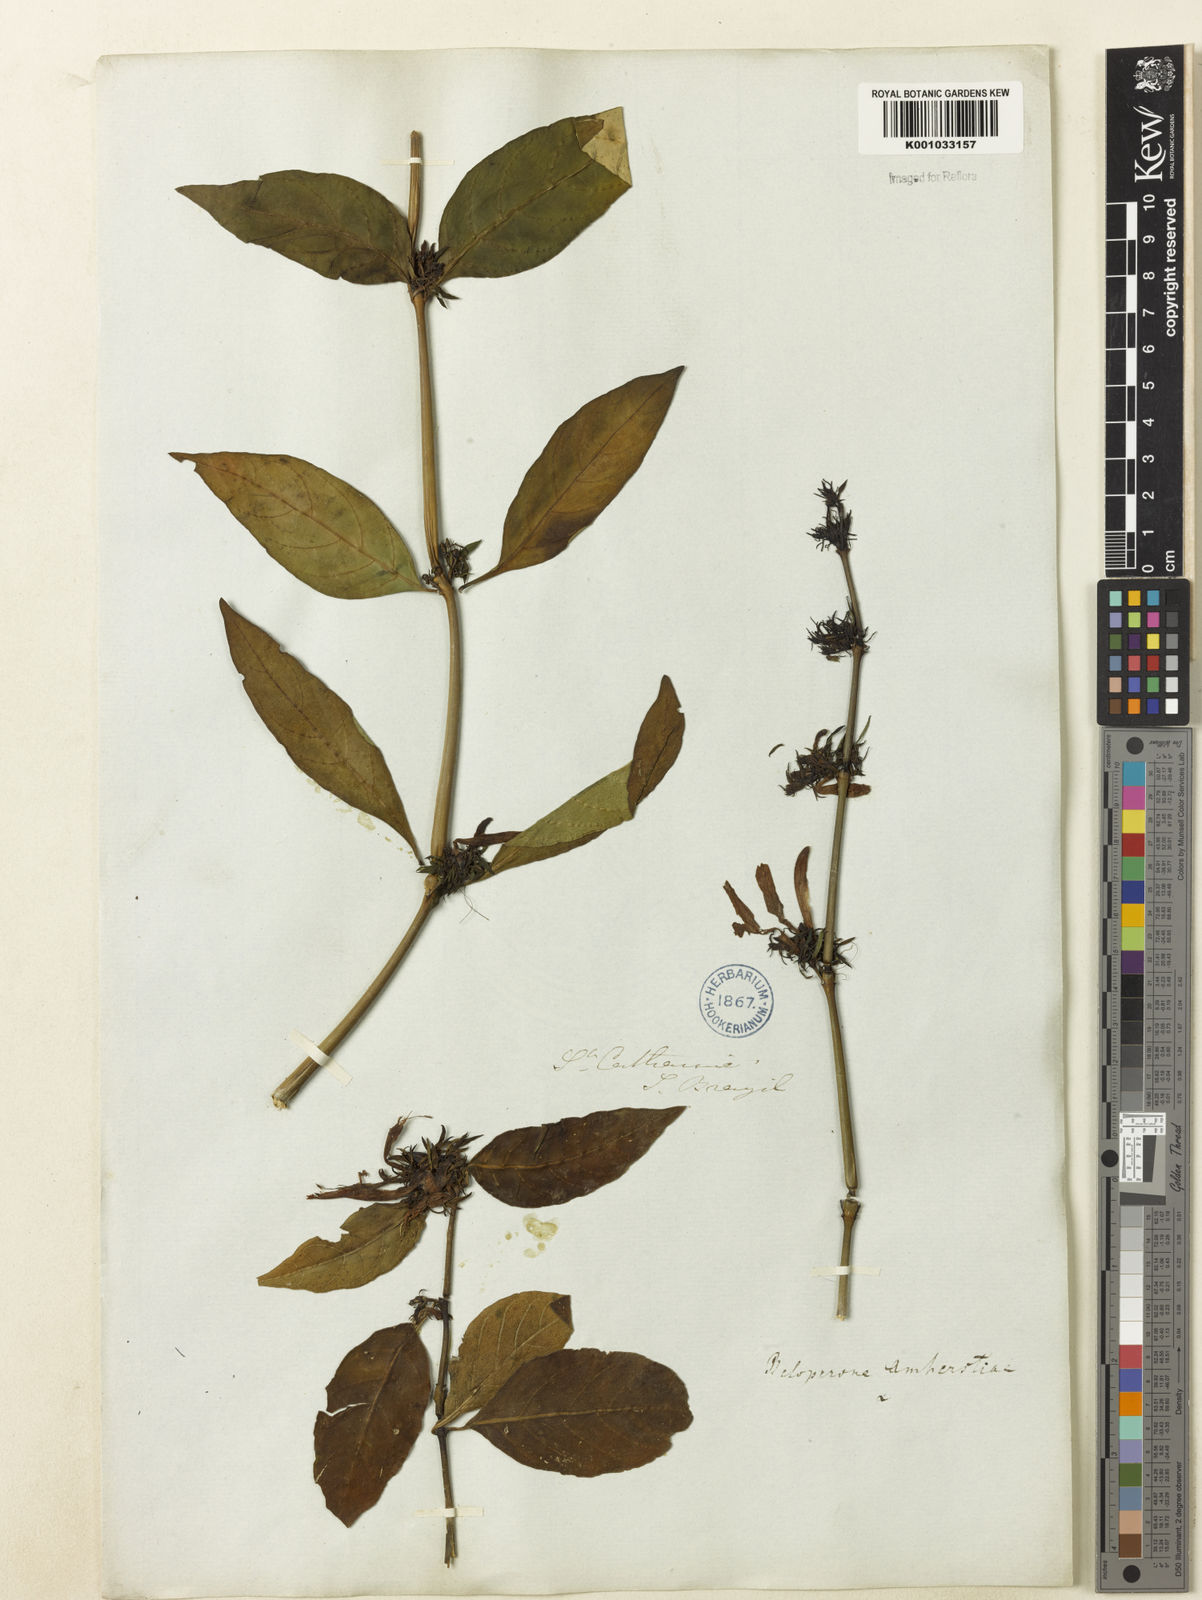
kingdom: Plantae
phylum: Tracheophyta
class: Magnoliopsida
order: Lamiales
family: Acanthaceae
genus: Justicia
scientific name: Justicia brasiliana
